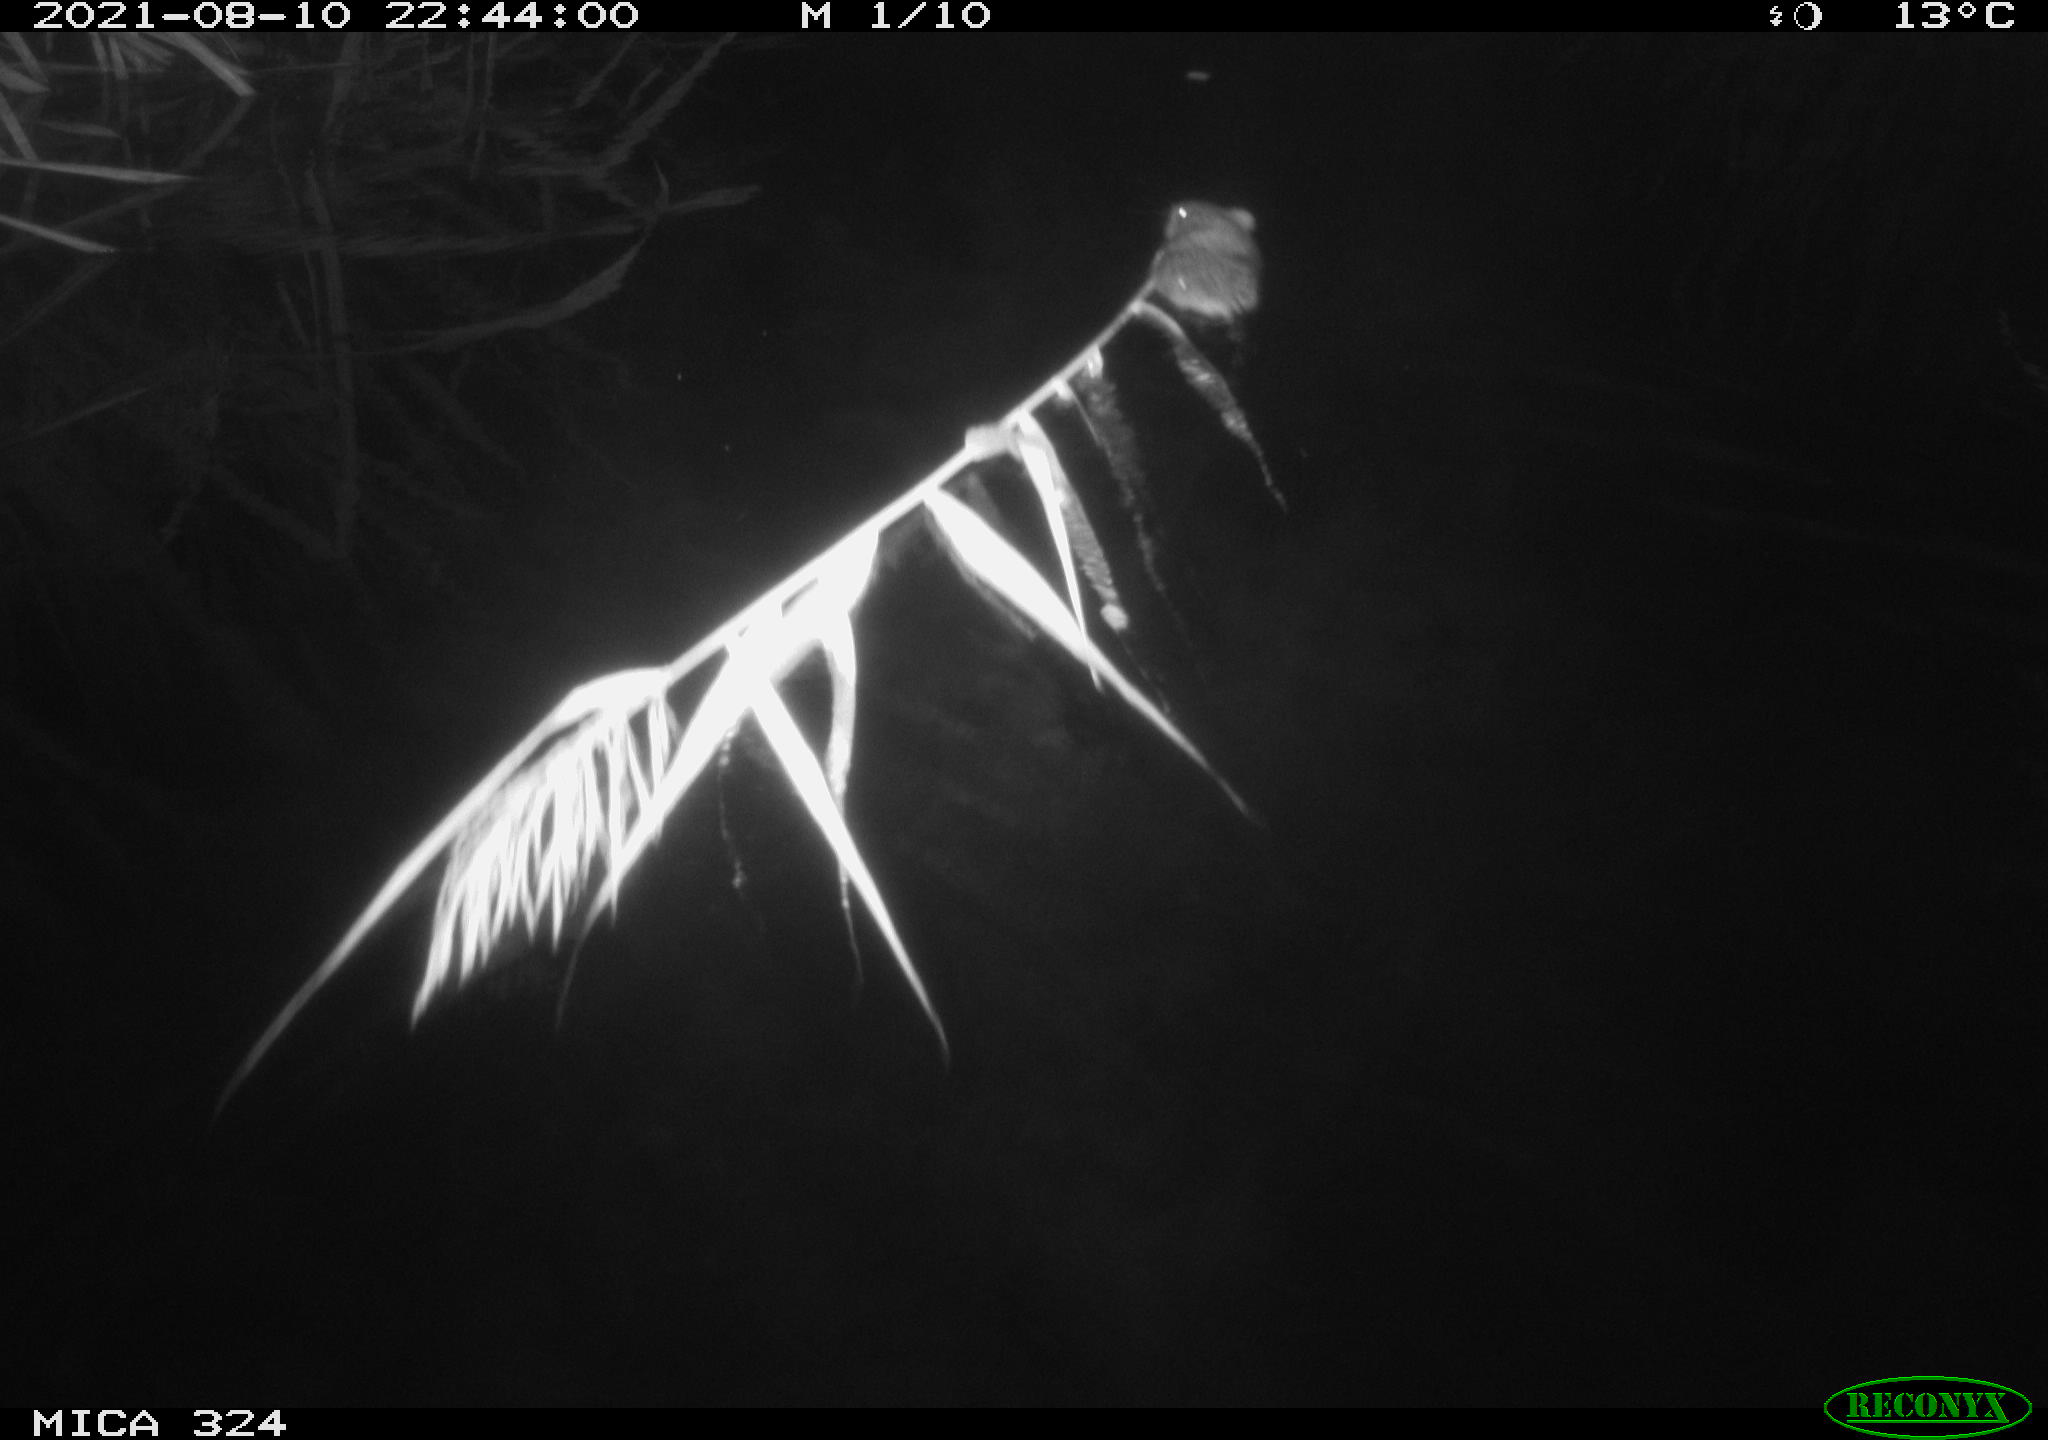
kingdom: Animalia
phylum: Chordata
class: Mammalia
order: Rodentia
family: Cricetidae
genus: Ondatra
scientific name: Ondatra zibethicus
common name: Muskrat
